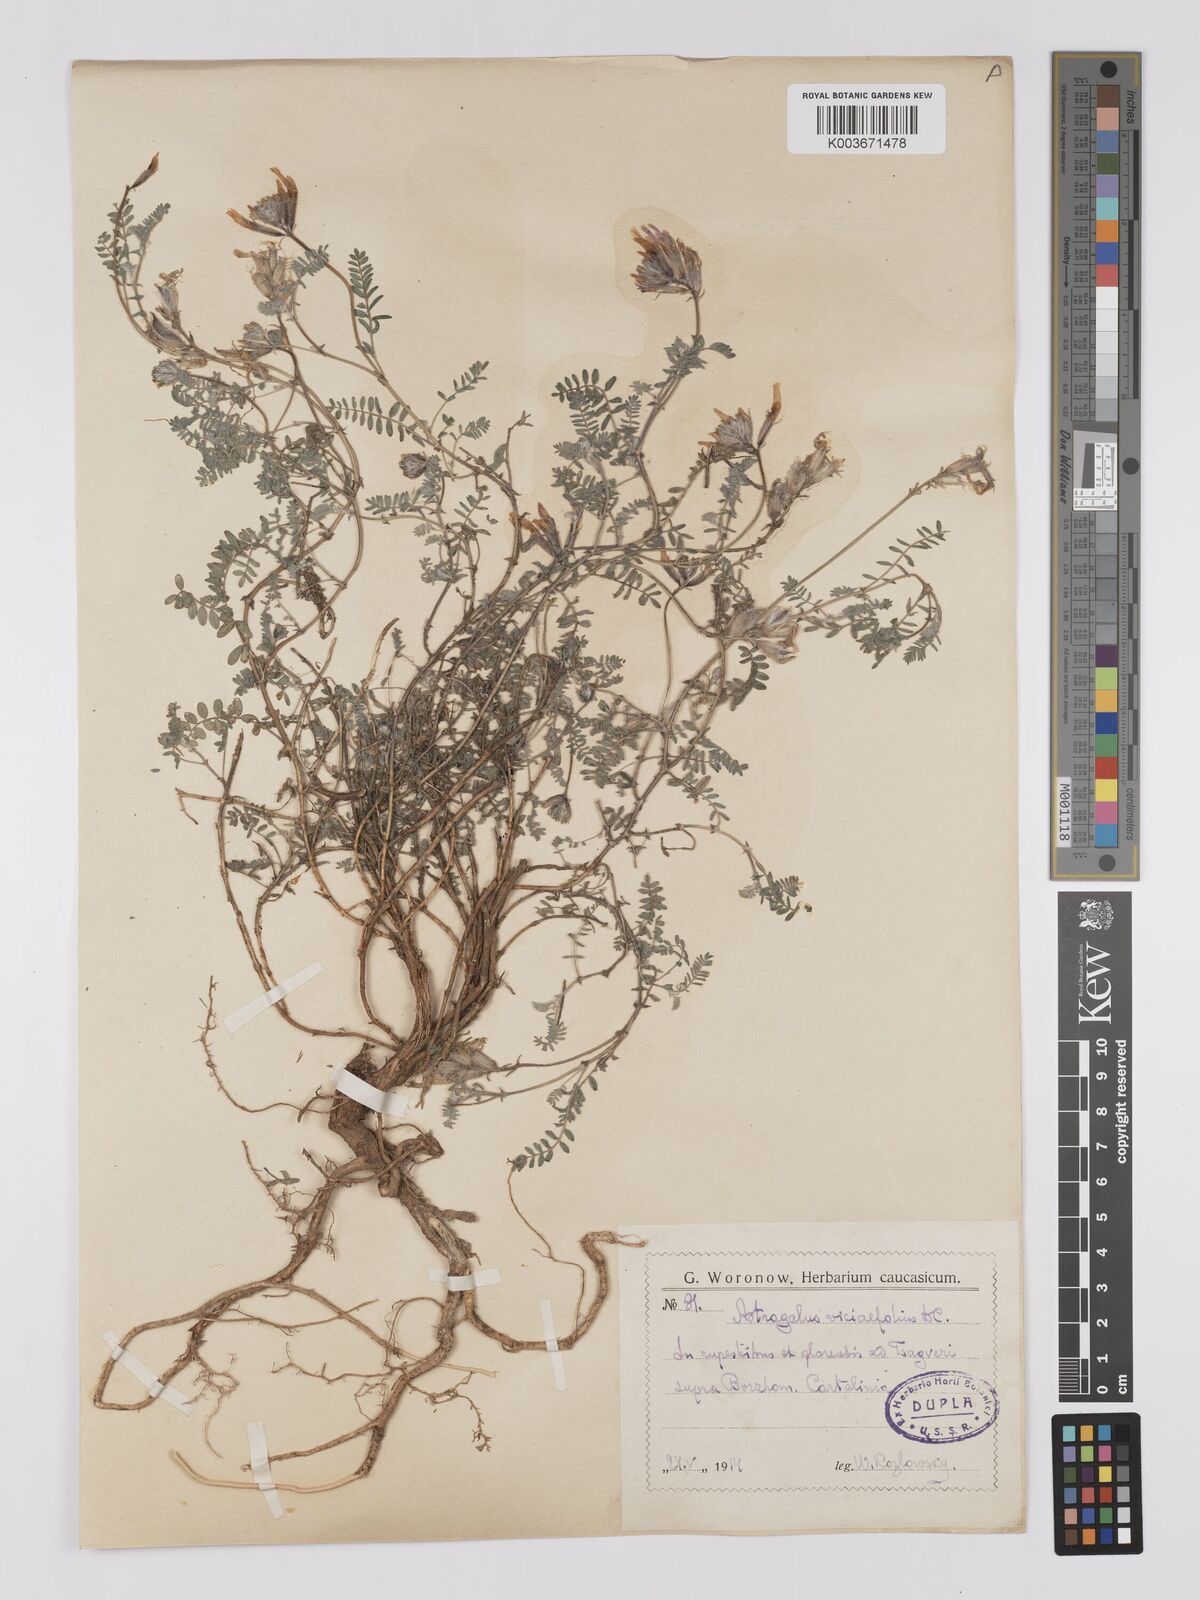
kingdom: Plantae
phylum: Tracheophyta
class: Magnoliopsida
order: Fabales
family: Fabaceae
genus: Astragalus
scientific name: Astragalus humifusus
